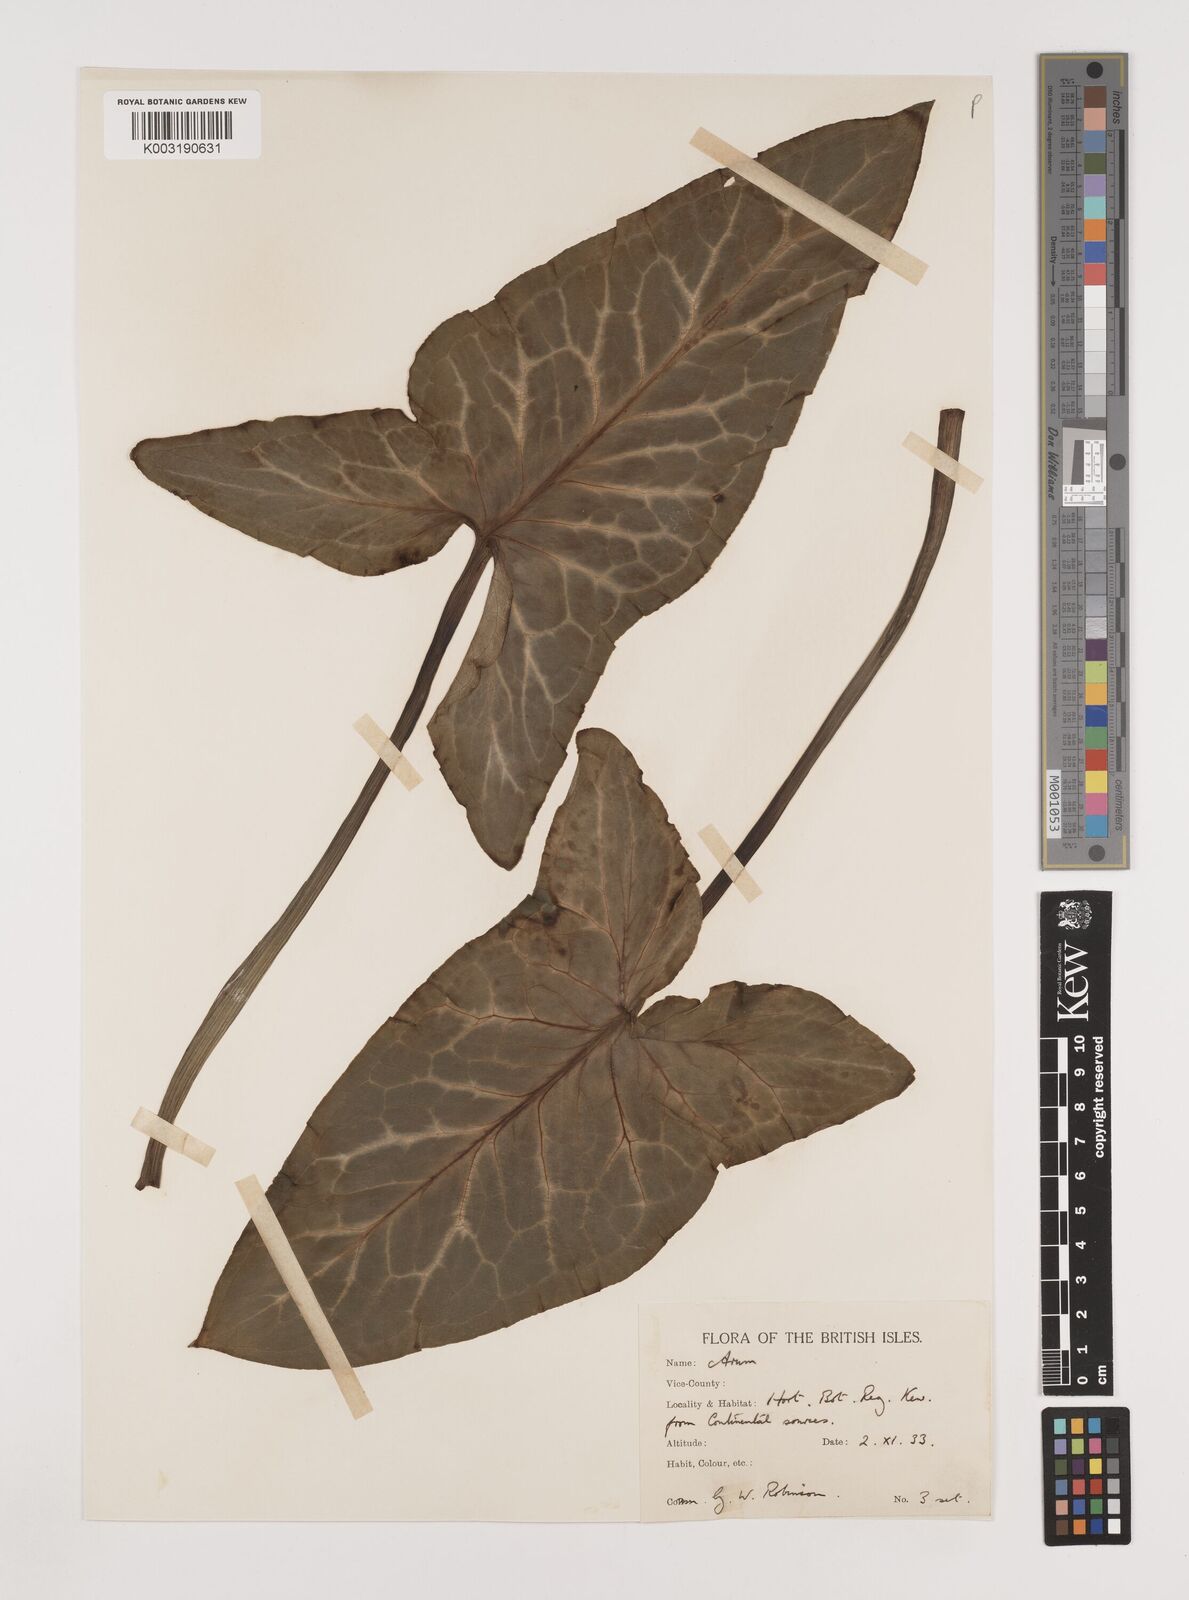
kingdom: Plantae
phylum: Tracheophyta
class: Liliopsida
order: Alismatales
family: Araceae
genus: Arum
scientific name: Arum italicum
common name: Italian lords-and-ladies
